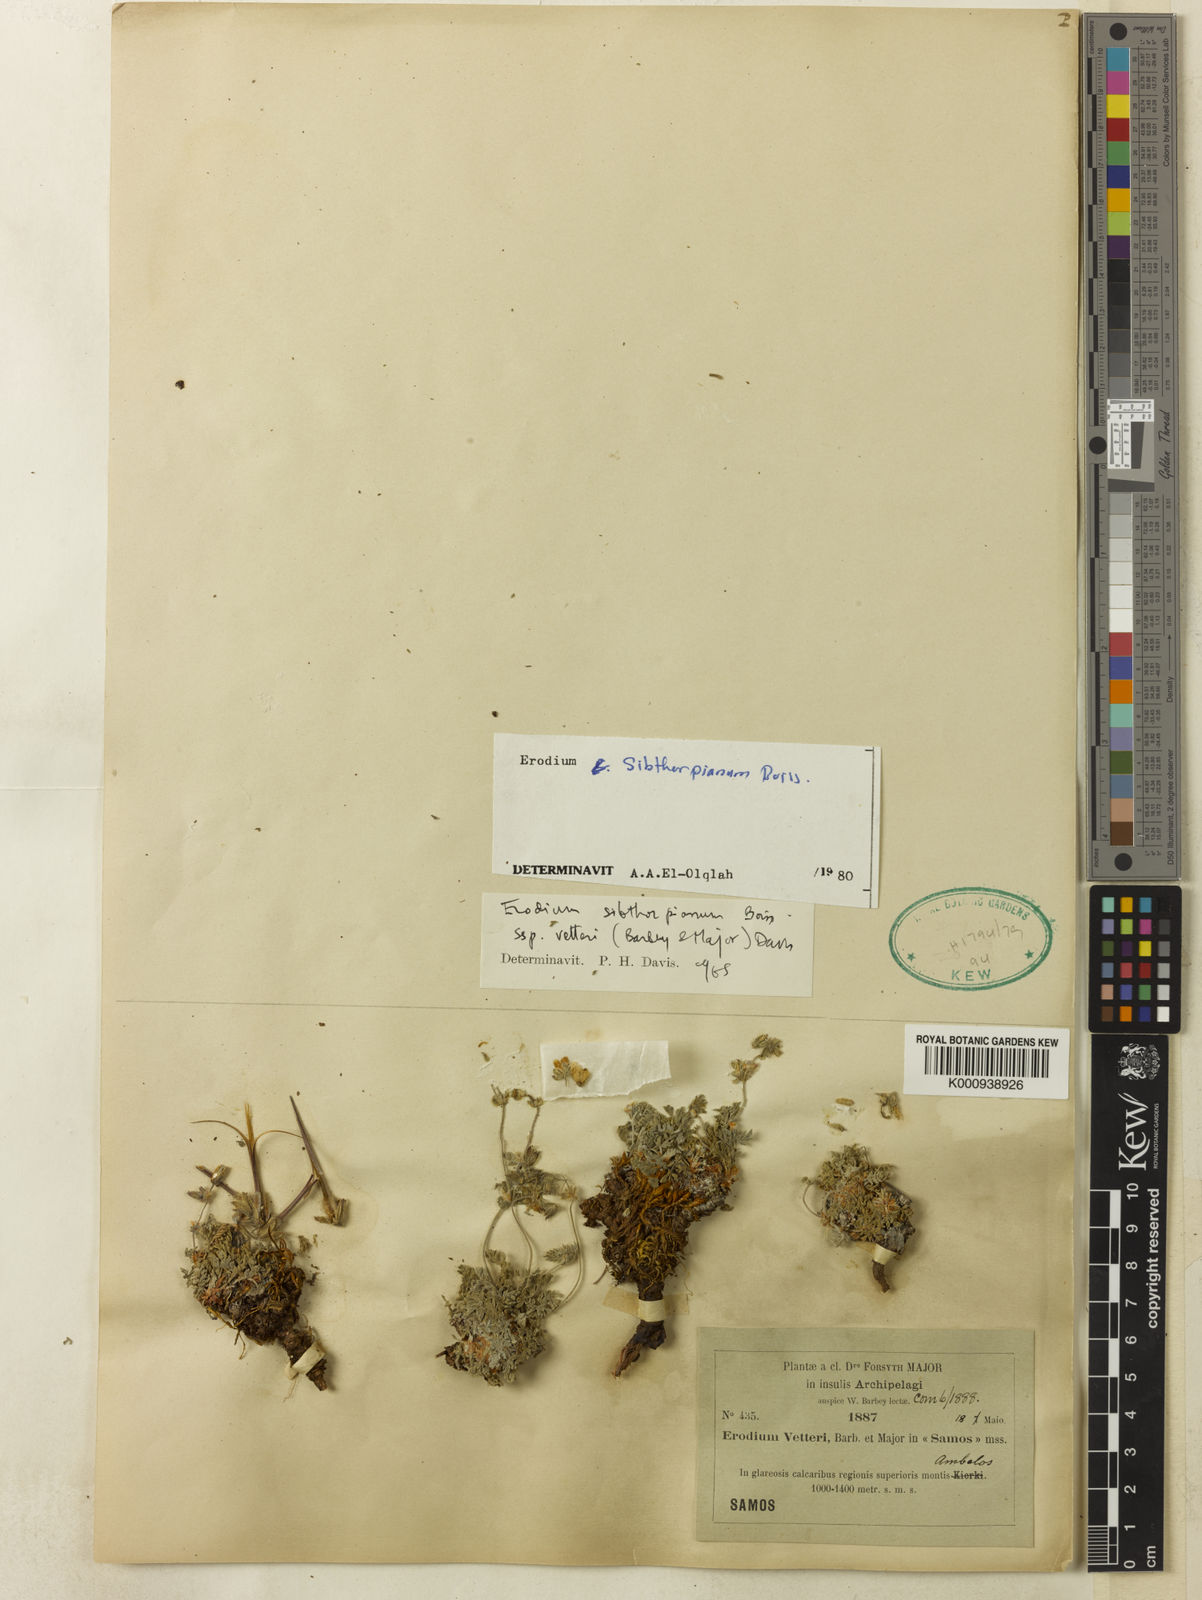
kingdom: Plantae
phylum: Tracheophyta
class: Magnoliopsida
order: Geraniales
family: Geraniaceae
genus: Erodium
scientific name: Erodium sibthorpianum
